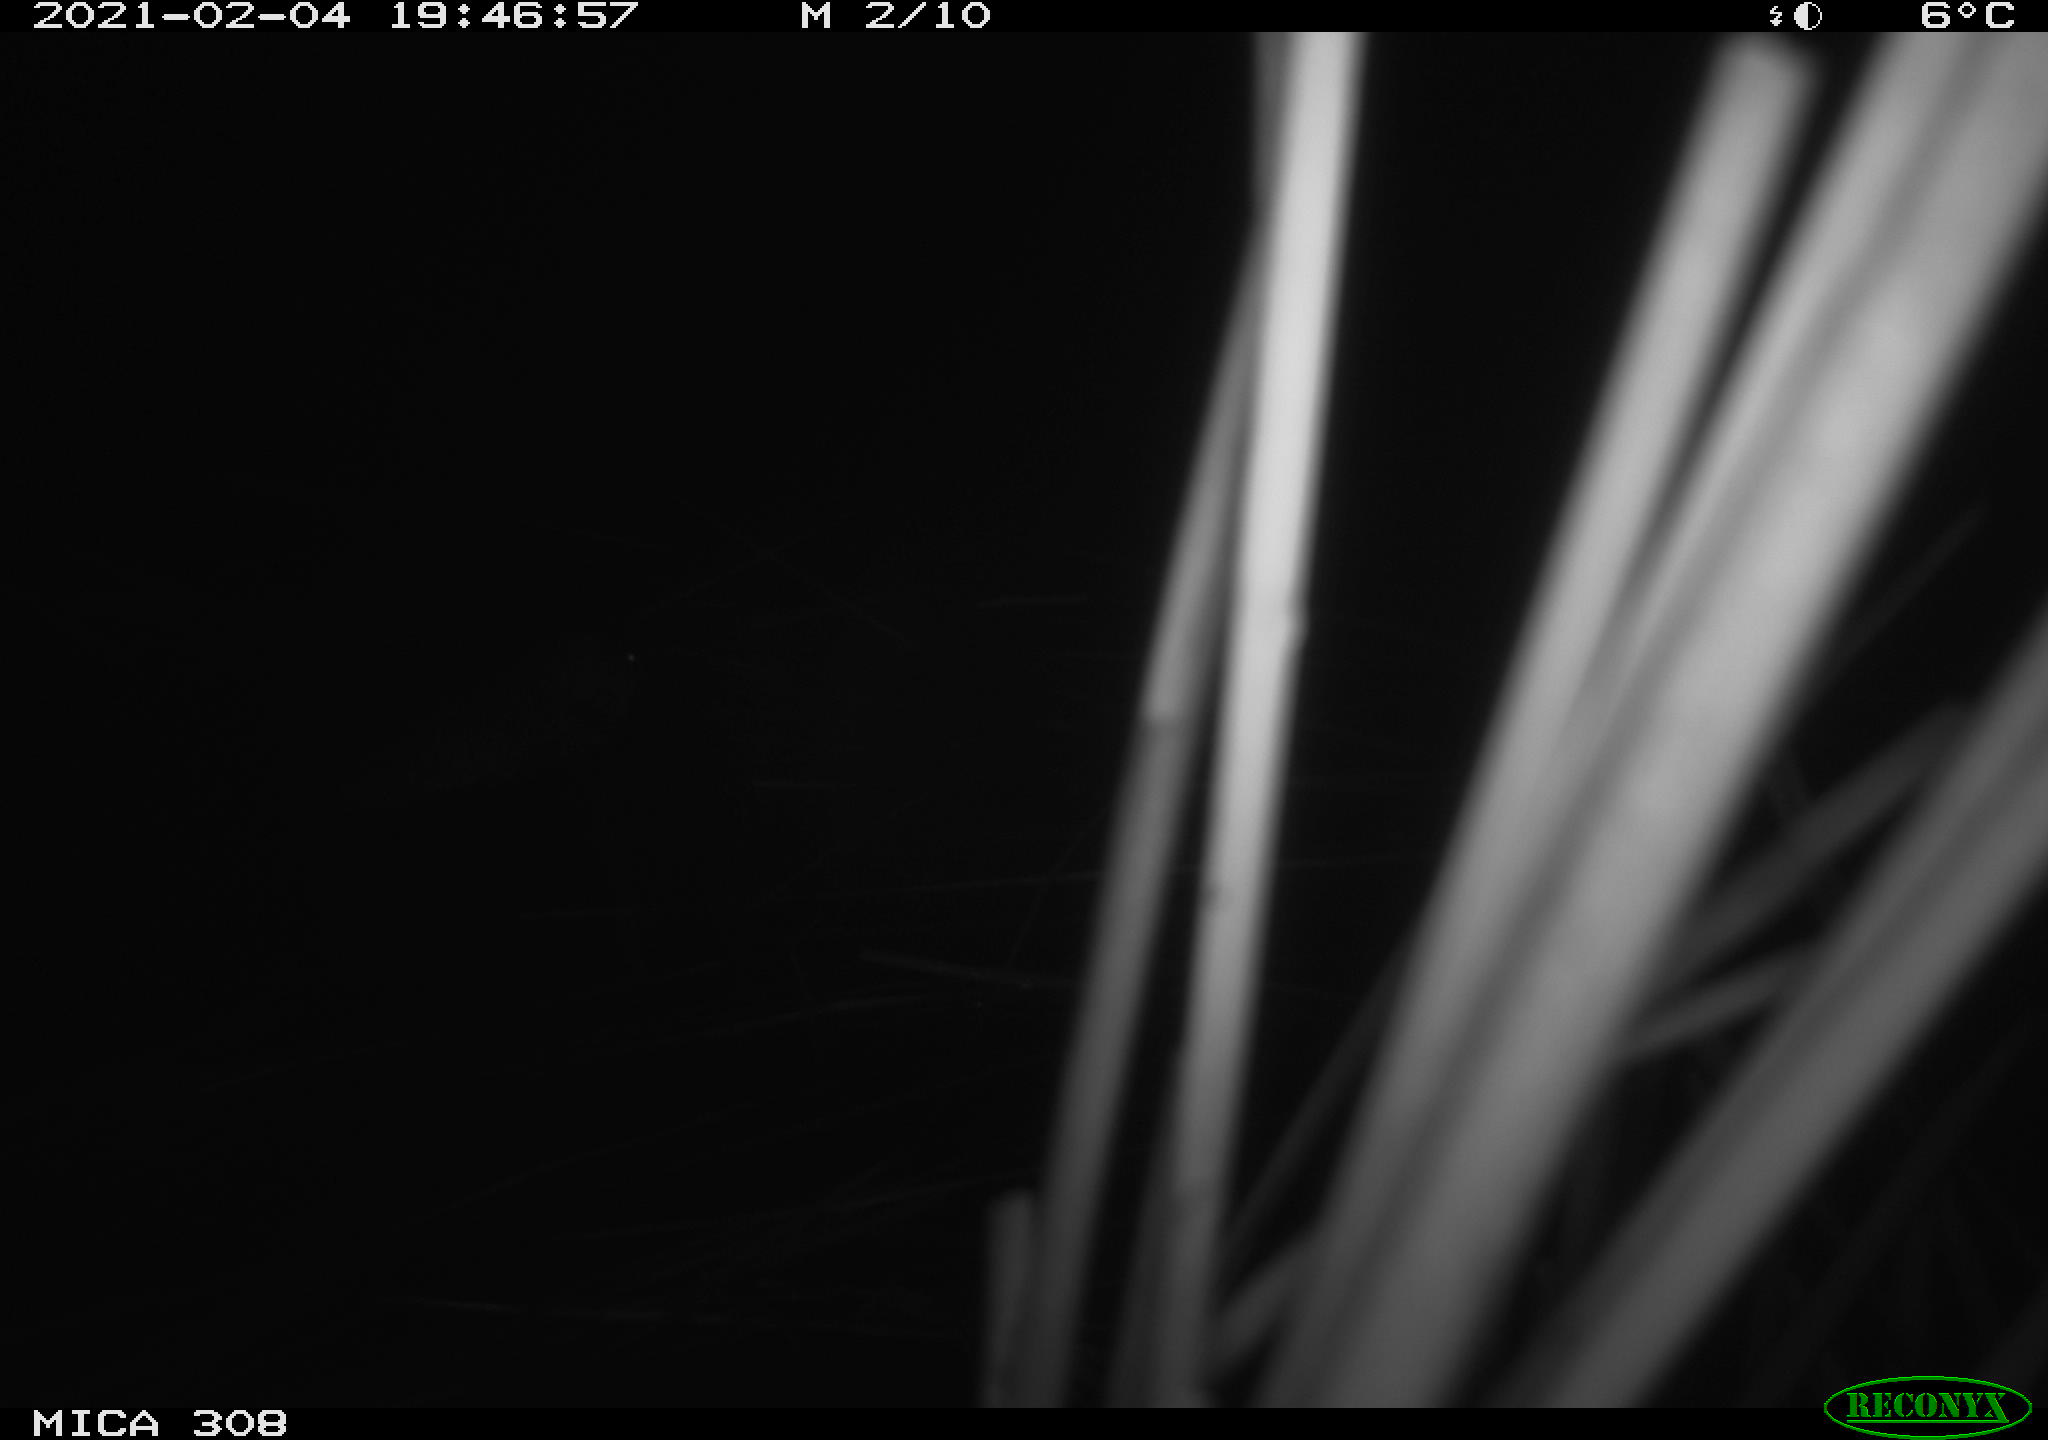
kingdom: Animalia
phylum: Chordata
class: Mammalia
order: Rodentia
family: Cricetidae
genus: Ondatra
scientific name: Ondatra zibethicus
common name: Muskrat
